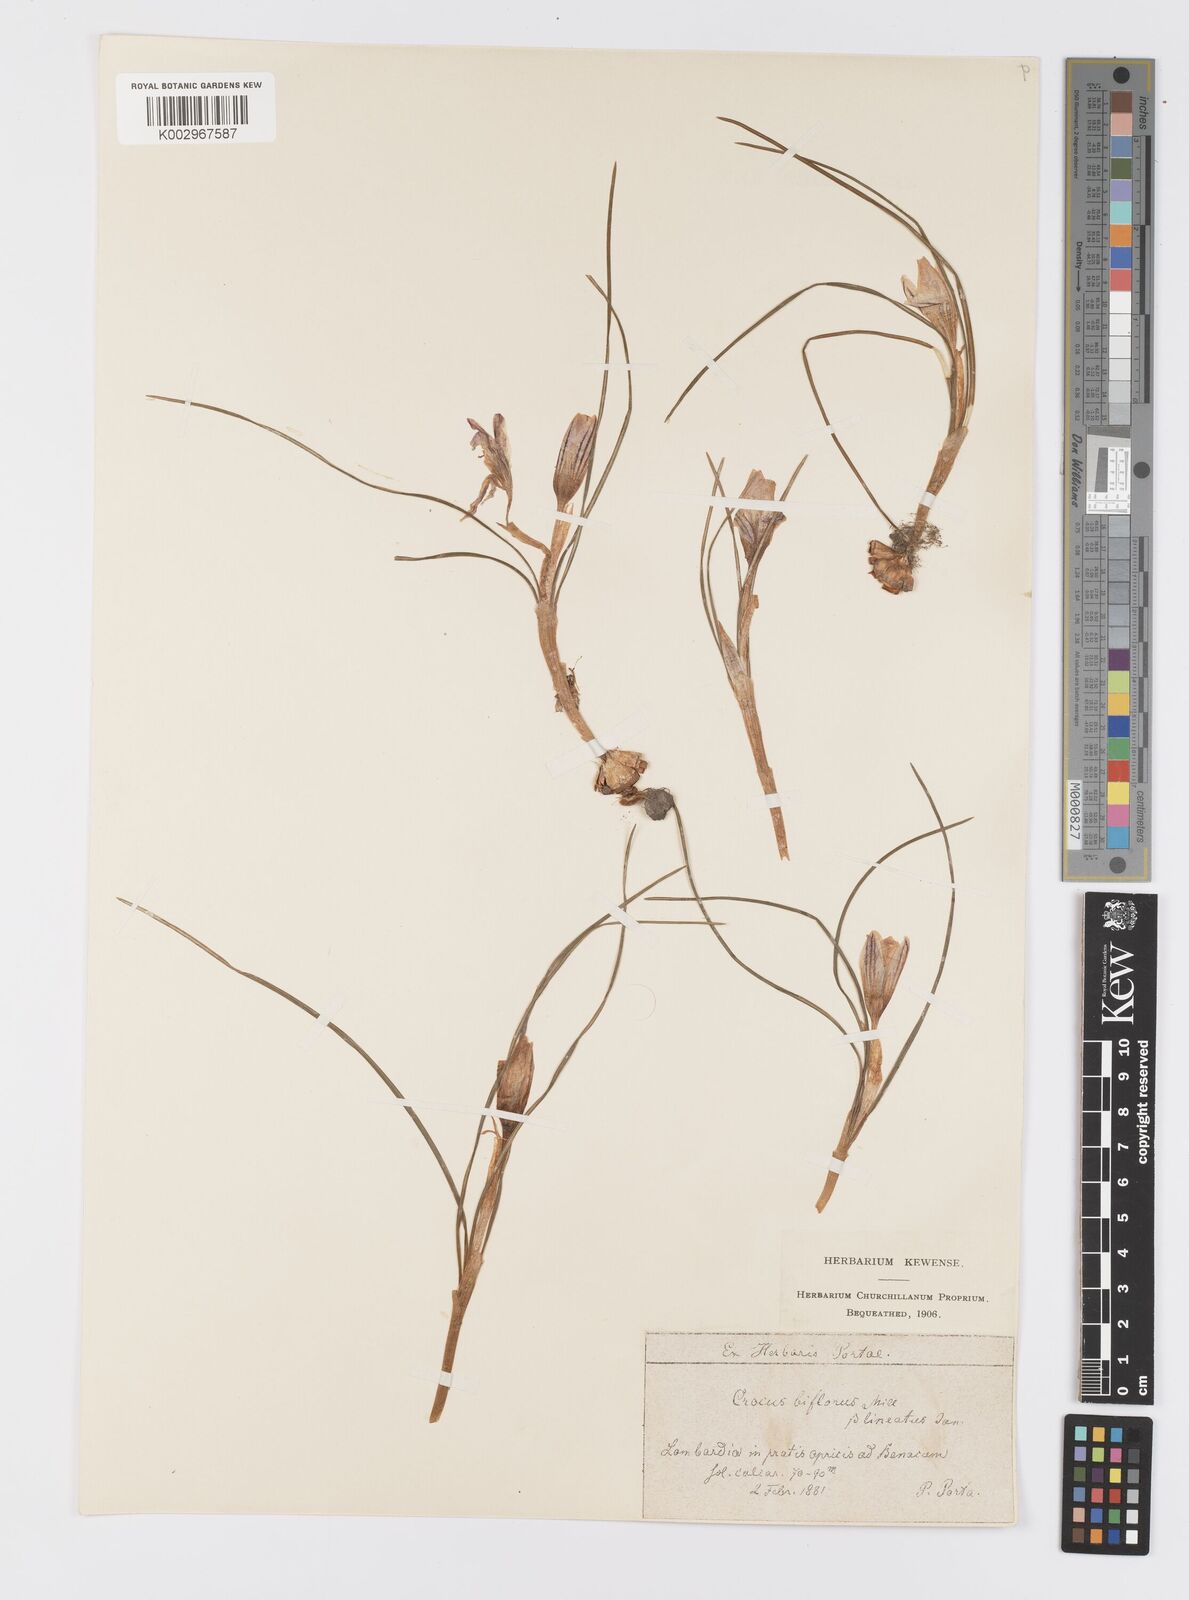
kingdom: Plantae
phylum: Tracheophyta
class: Liliopsida
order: Asparagales
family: Iridaceae
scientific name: Iridaceae
